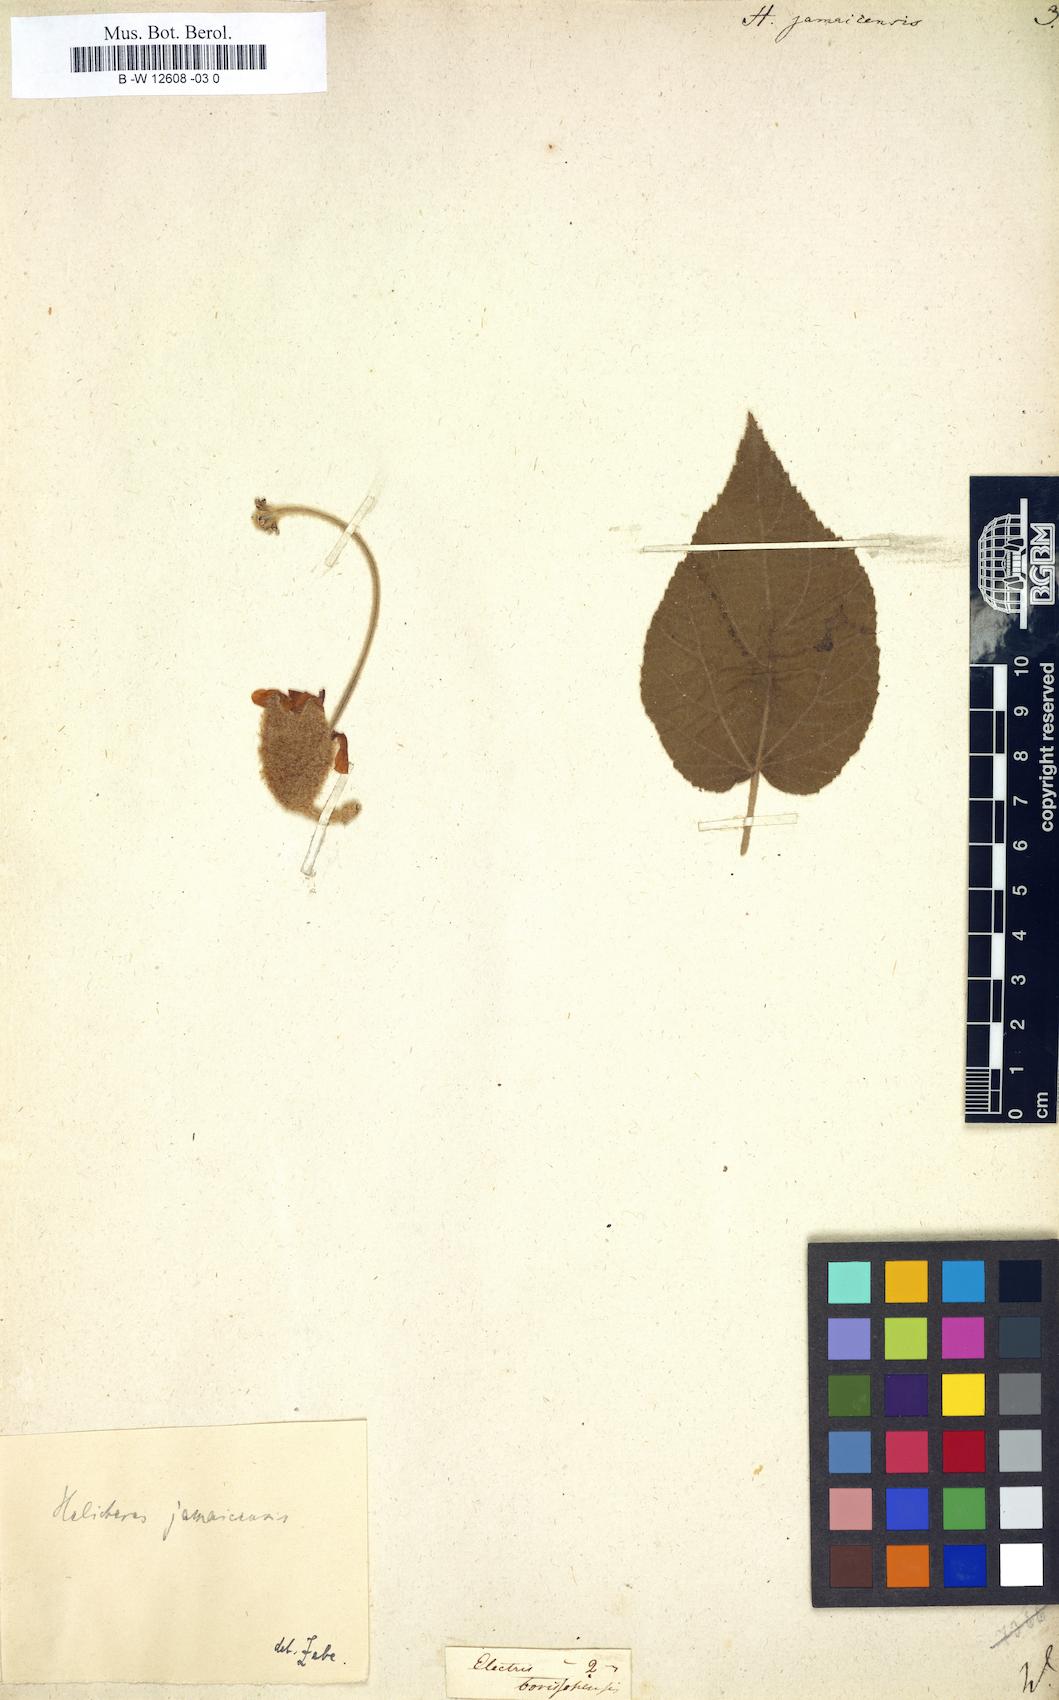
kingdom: Plantae
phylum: Tracheophyta
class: Magnoliopsida
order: Malvales
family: Malvaceae
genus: Helicteres
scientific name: Helicteres jamaicensis
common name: Cowbush
